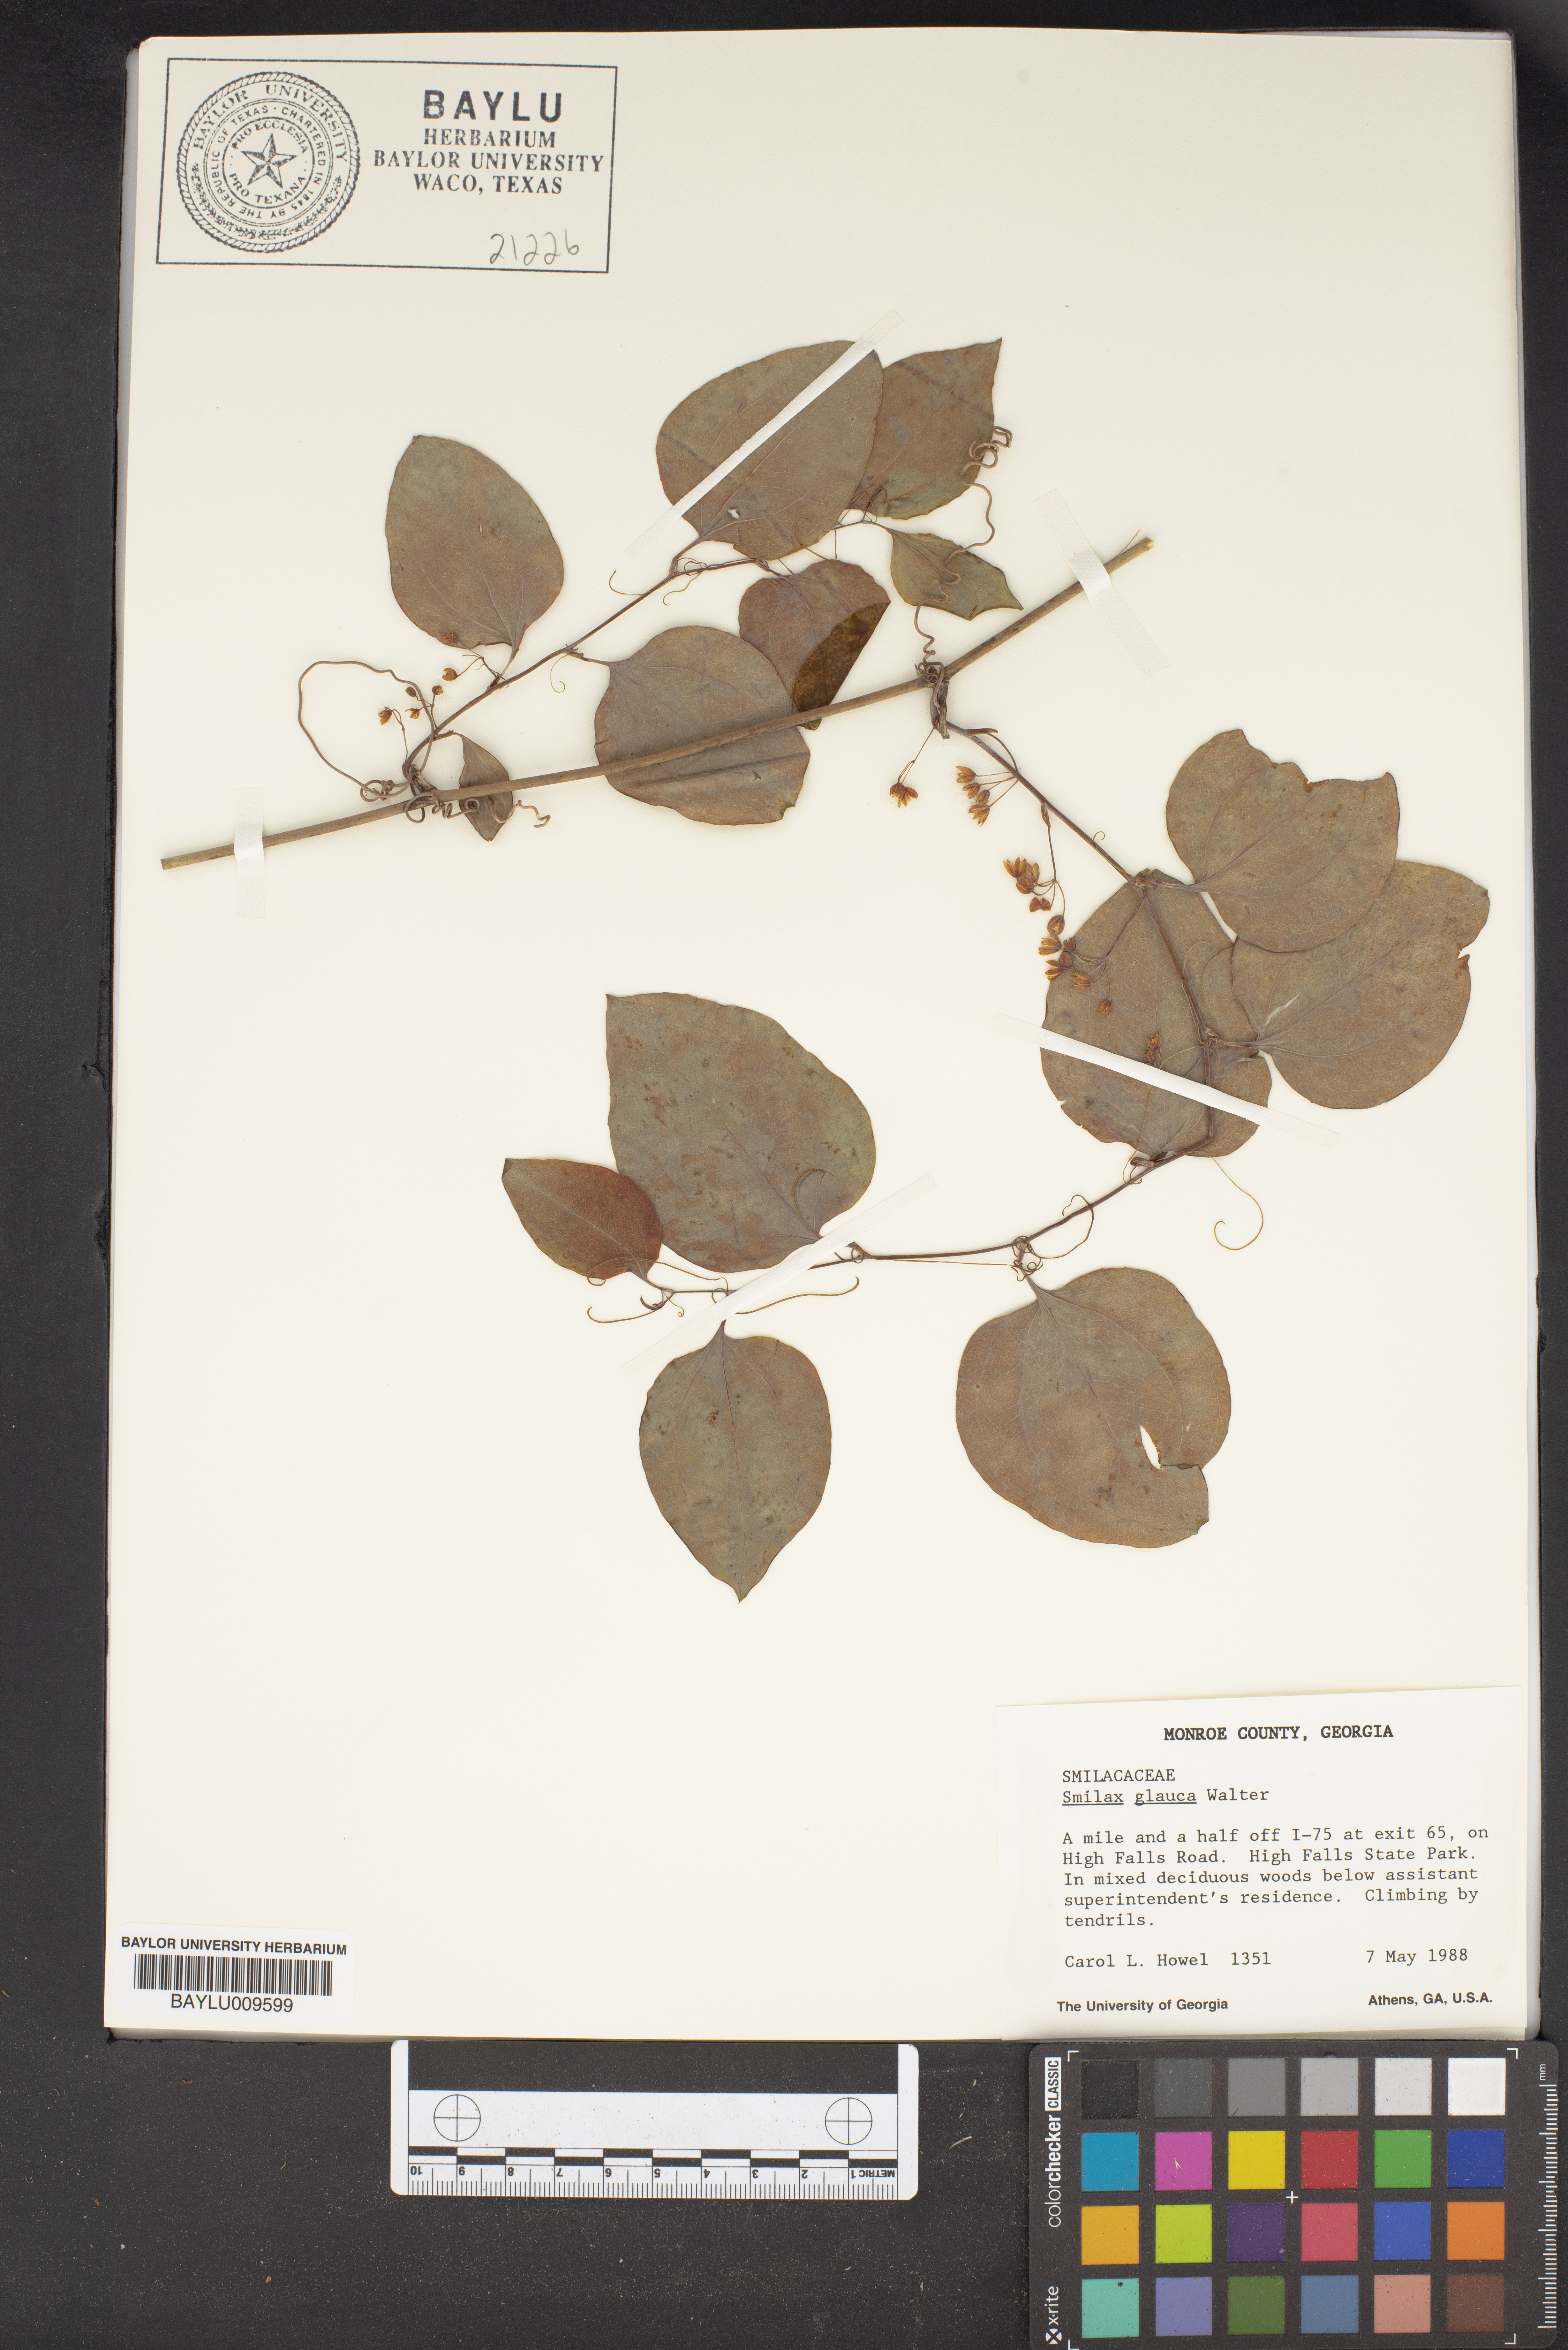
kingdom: Plantae
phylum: Tracheophyta
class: Liliopsida
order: Liliales
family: Smilacaceae
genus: Smilax
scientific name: Smilax glauca
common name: Cat greenbrier
